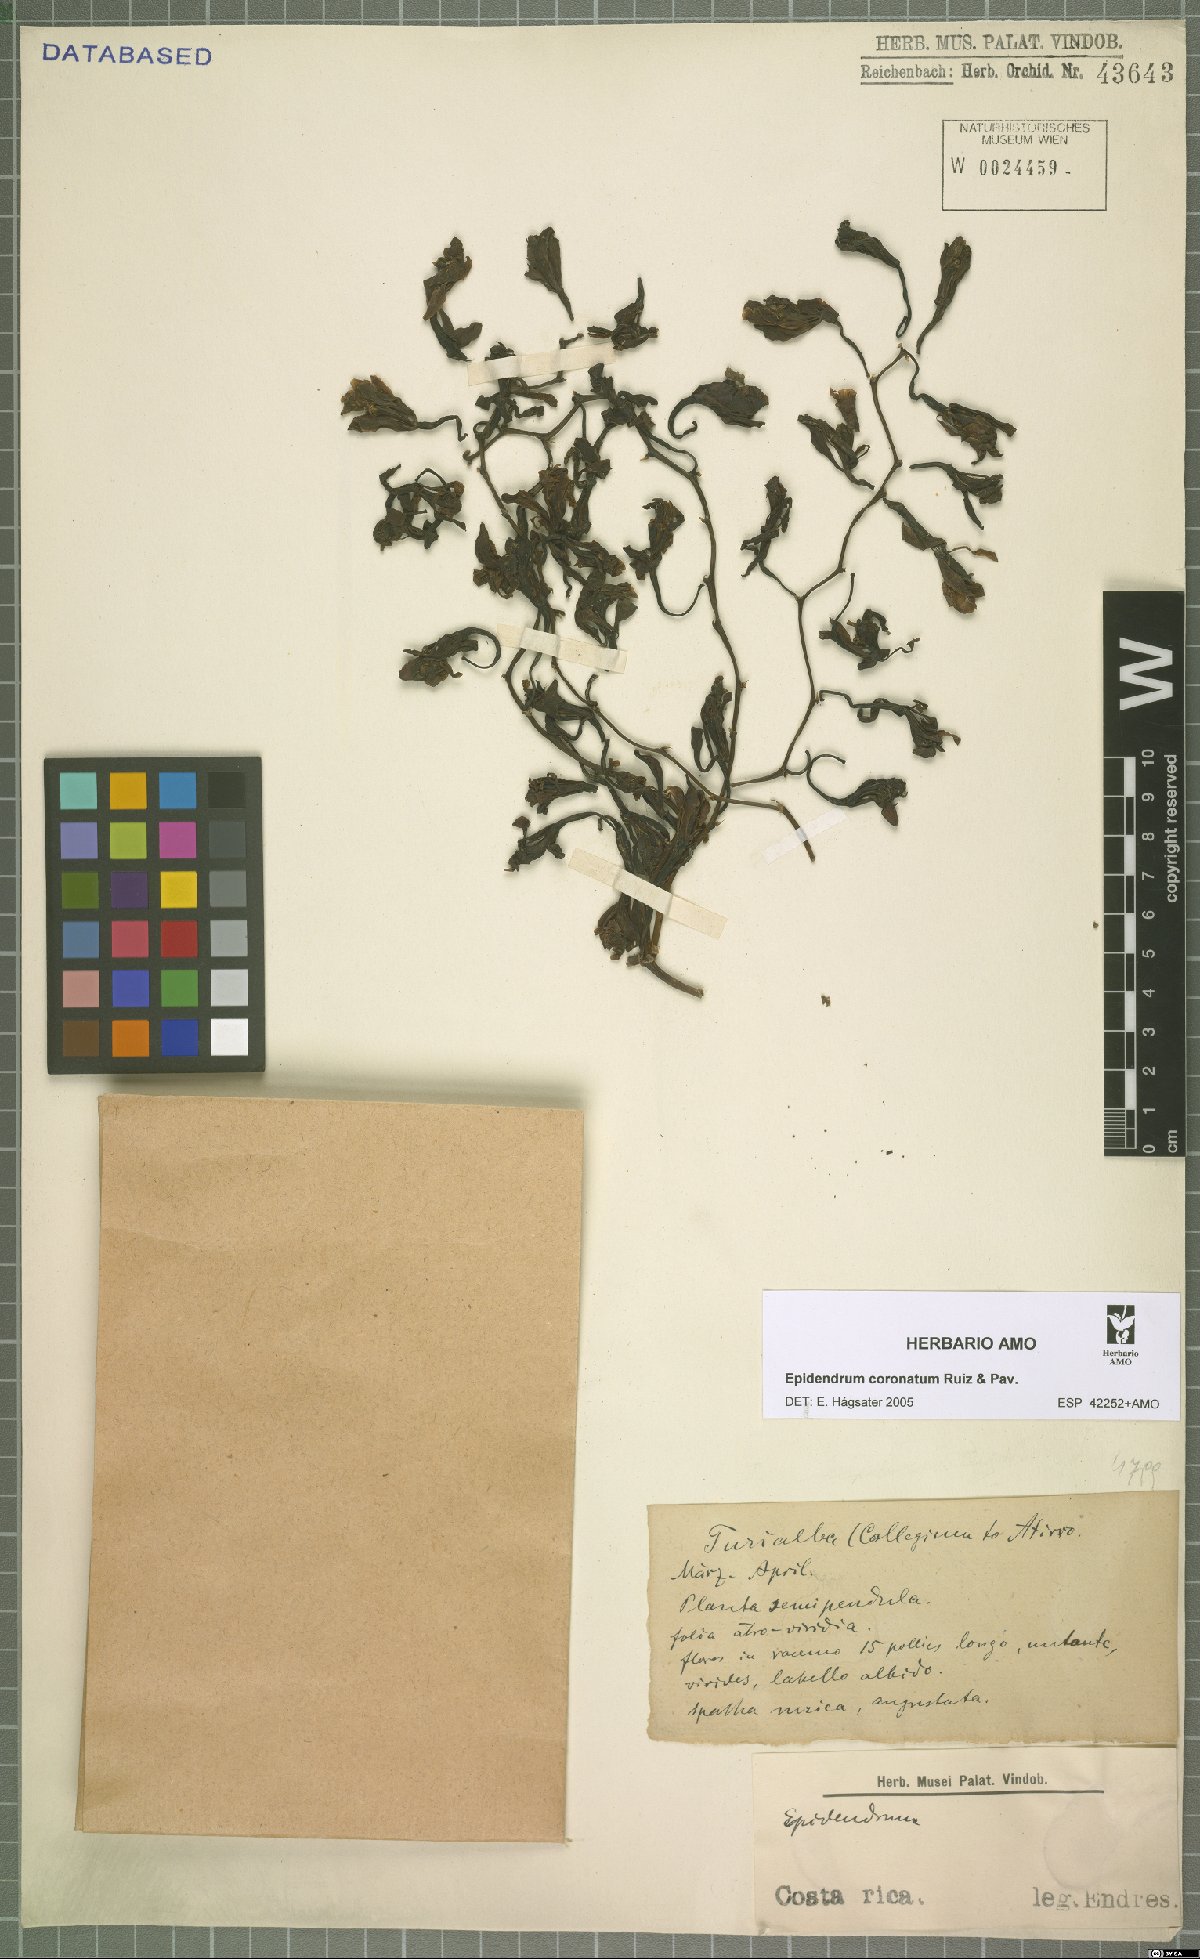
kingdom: Plantae
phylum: Tracheophyta
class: Liliopsida
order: Asparagales
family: Orchidaceae
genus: Epidendrum
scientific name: Epidendrum coronatum
